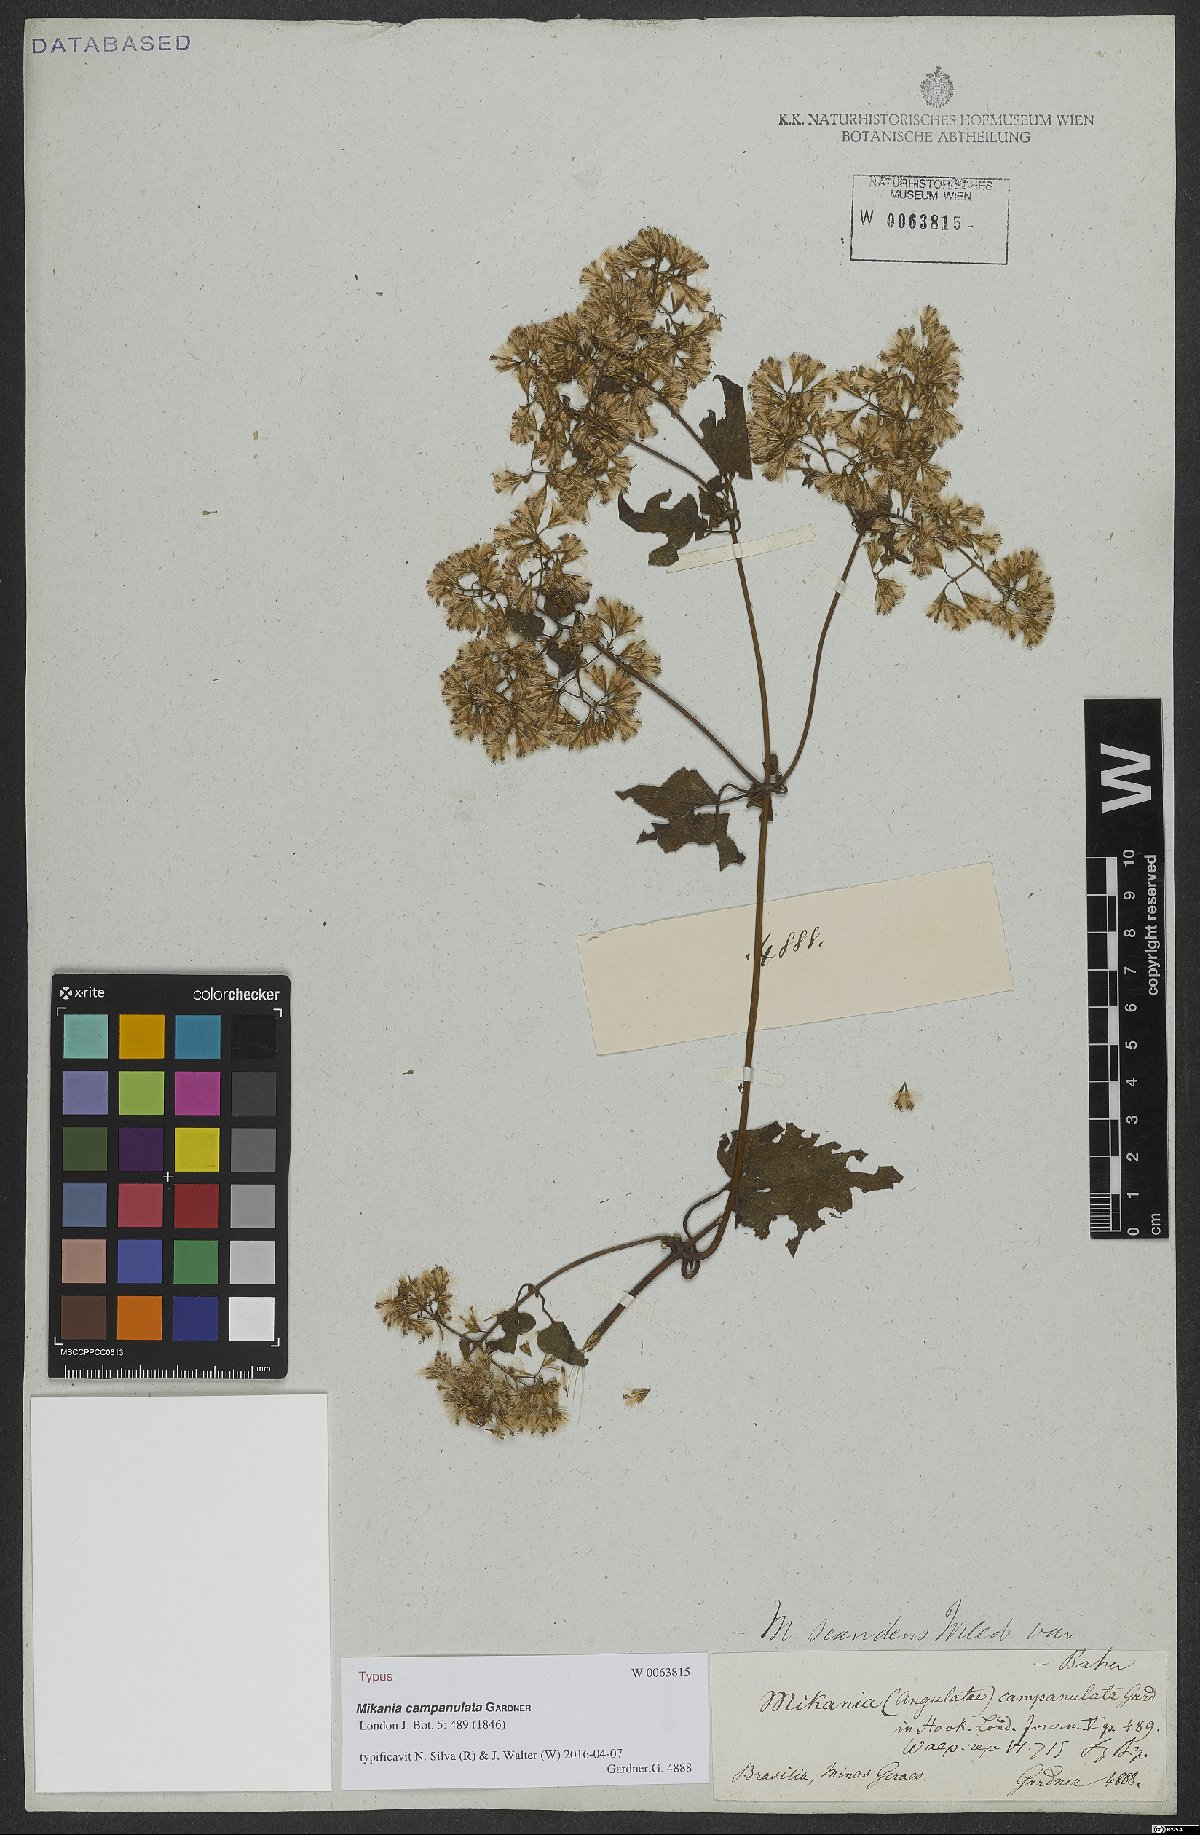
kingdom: Plantae
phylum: Tracheophyta
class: Magnoliopsida
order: Asterales
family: Asteraceae
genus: Mikania
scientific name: Mikania campanulata
